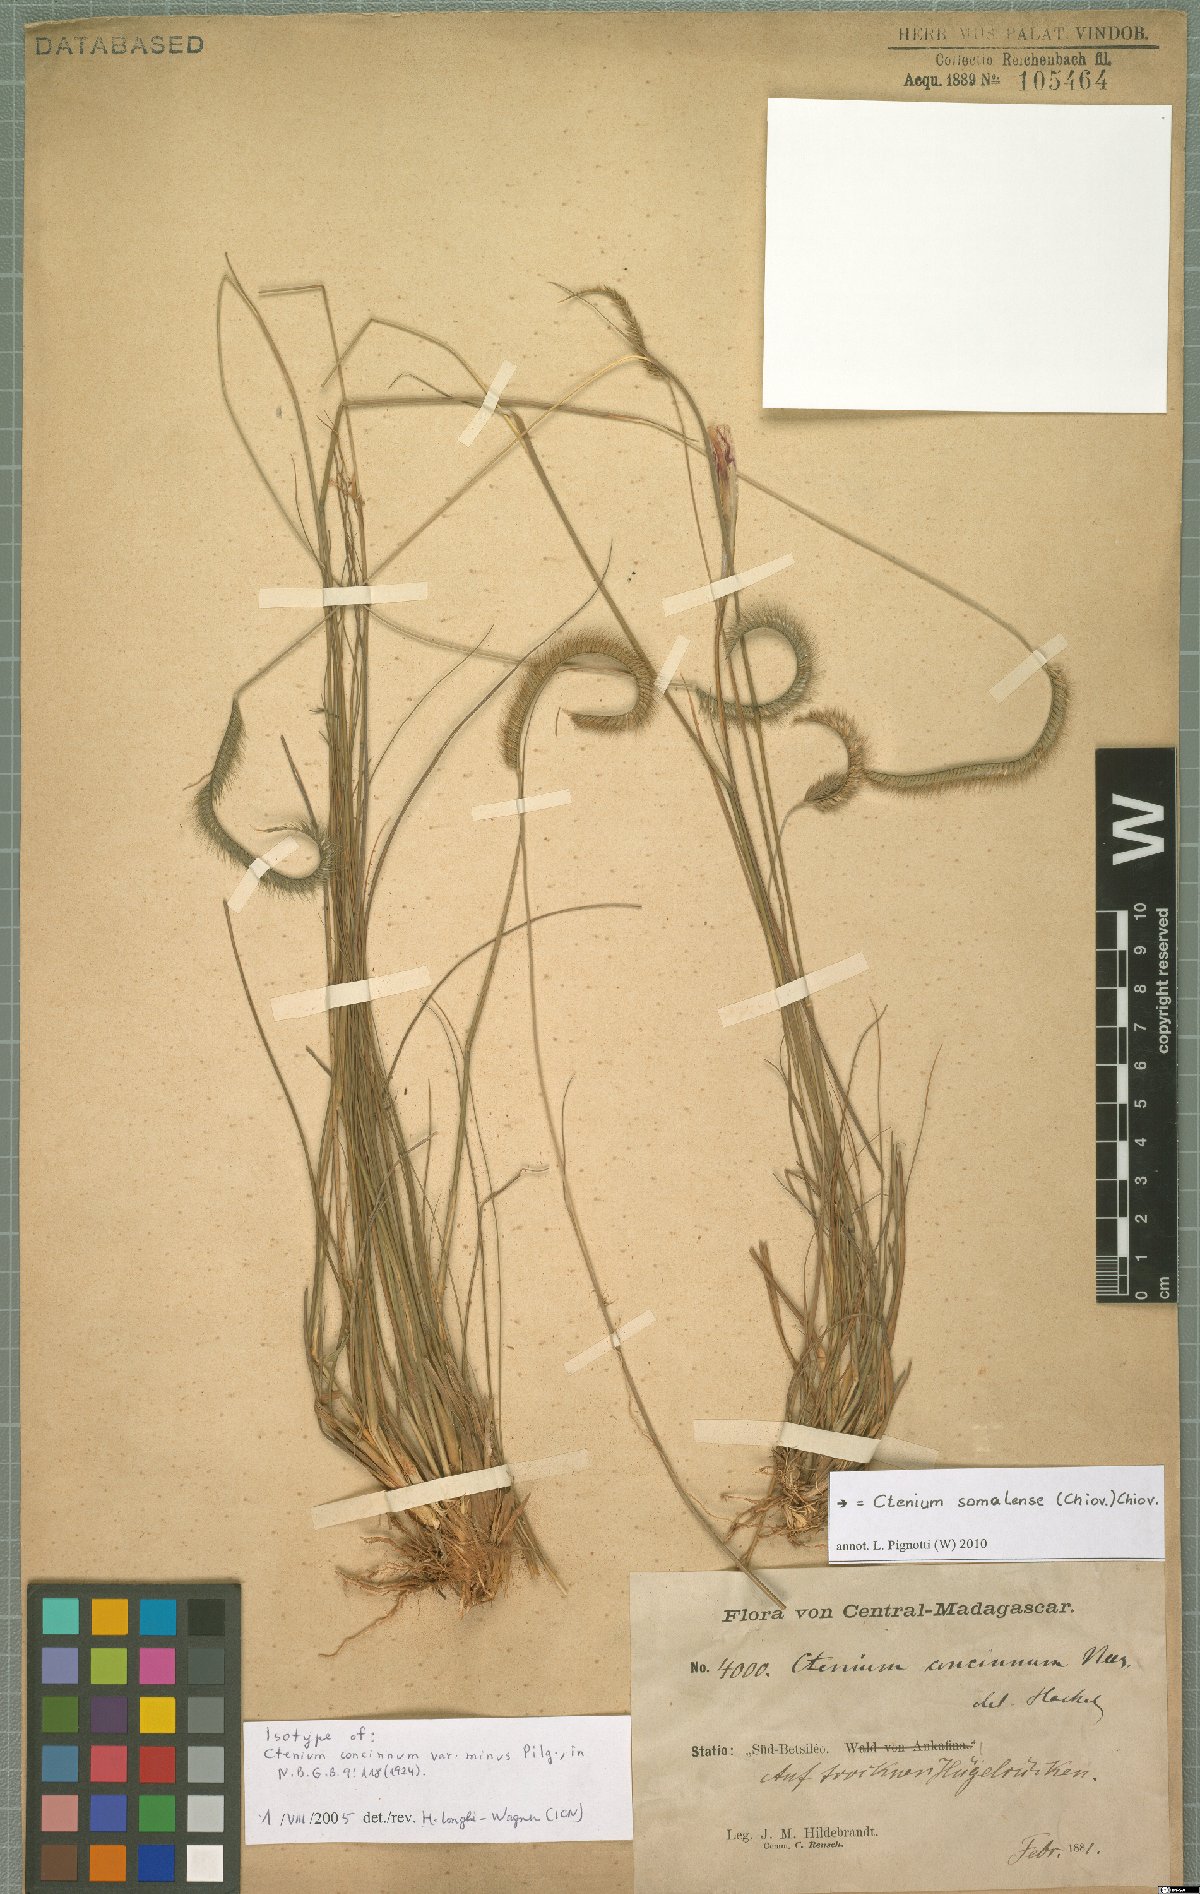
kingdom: Plantae
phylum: Tracheophyta
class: Liliopsida
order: Poales
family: Poaceae
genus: Ctenium
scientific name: Ctenium concinnum
